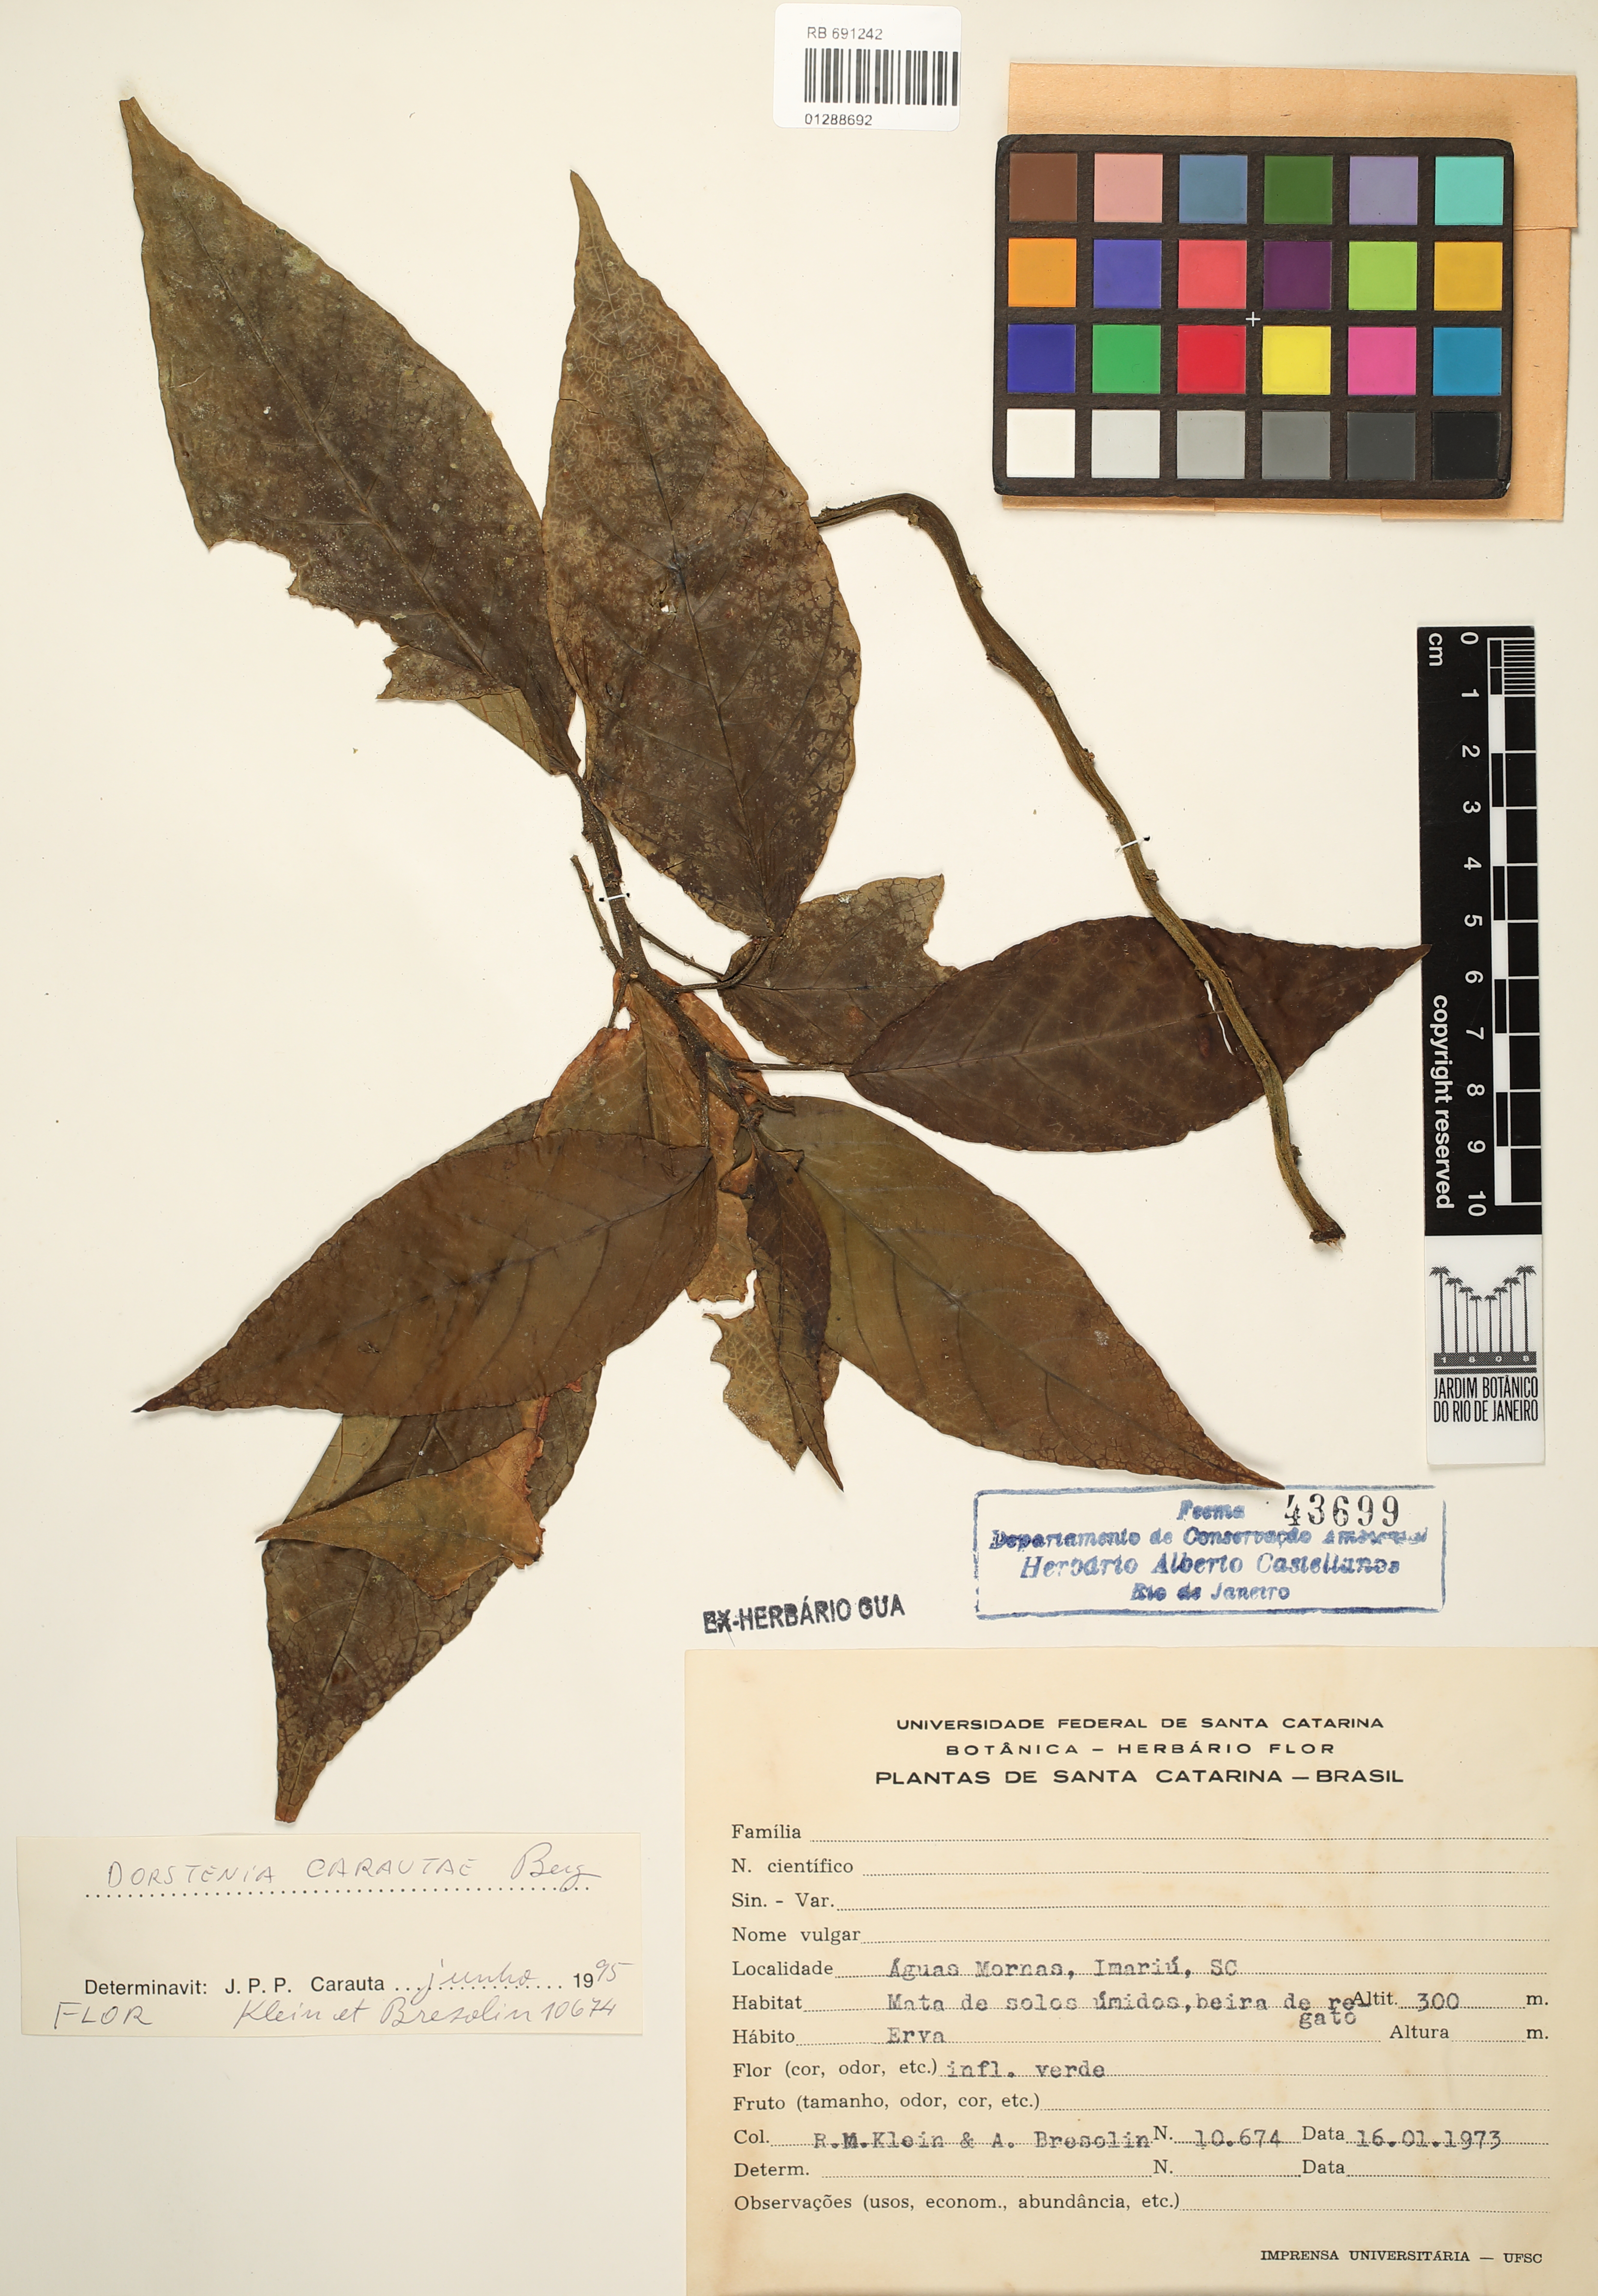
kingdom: Plantae
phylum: Tracheophyta
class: Magnoliopsida
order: Rosales
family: Moraceae
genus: Dorstenia
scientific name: Dorstenia carautae
